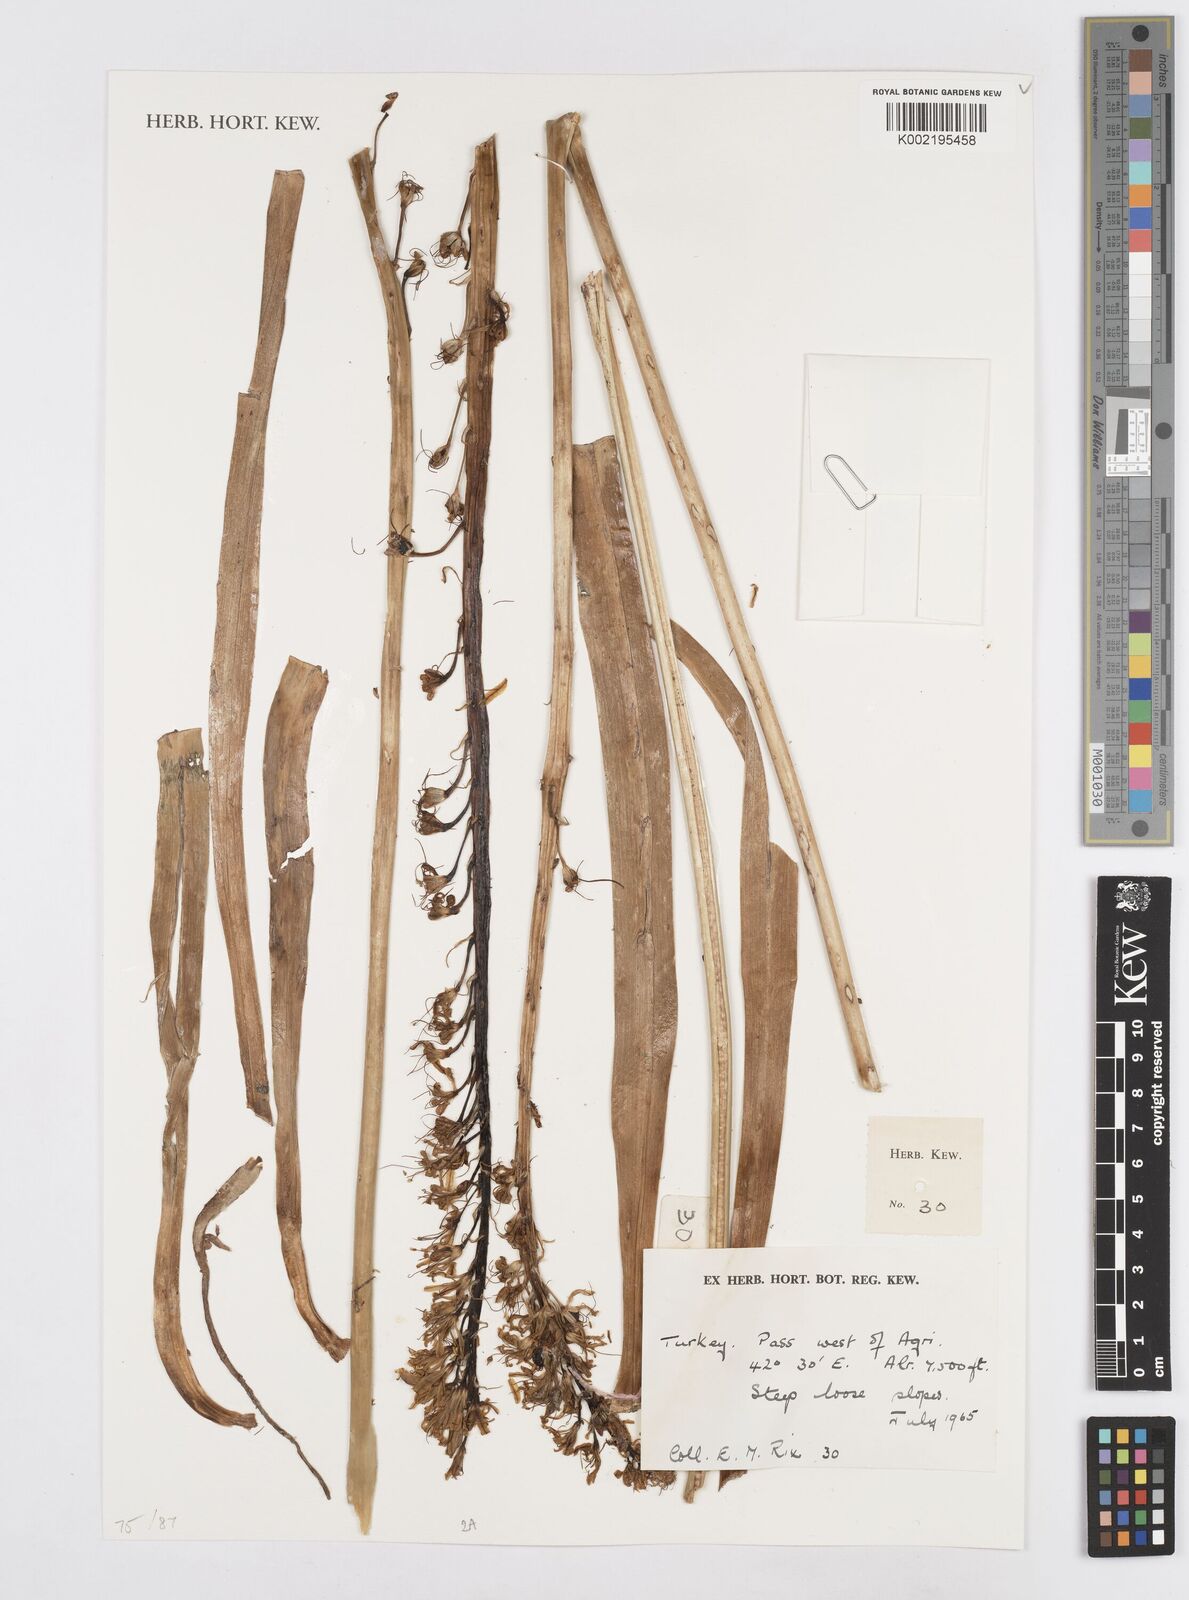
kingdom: Plantae
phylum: Tracheophyta
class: Liliopsida
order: Asparagales
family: Asparagaceae
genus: Ornithogalum
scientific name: Ornithogalum
